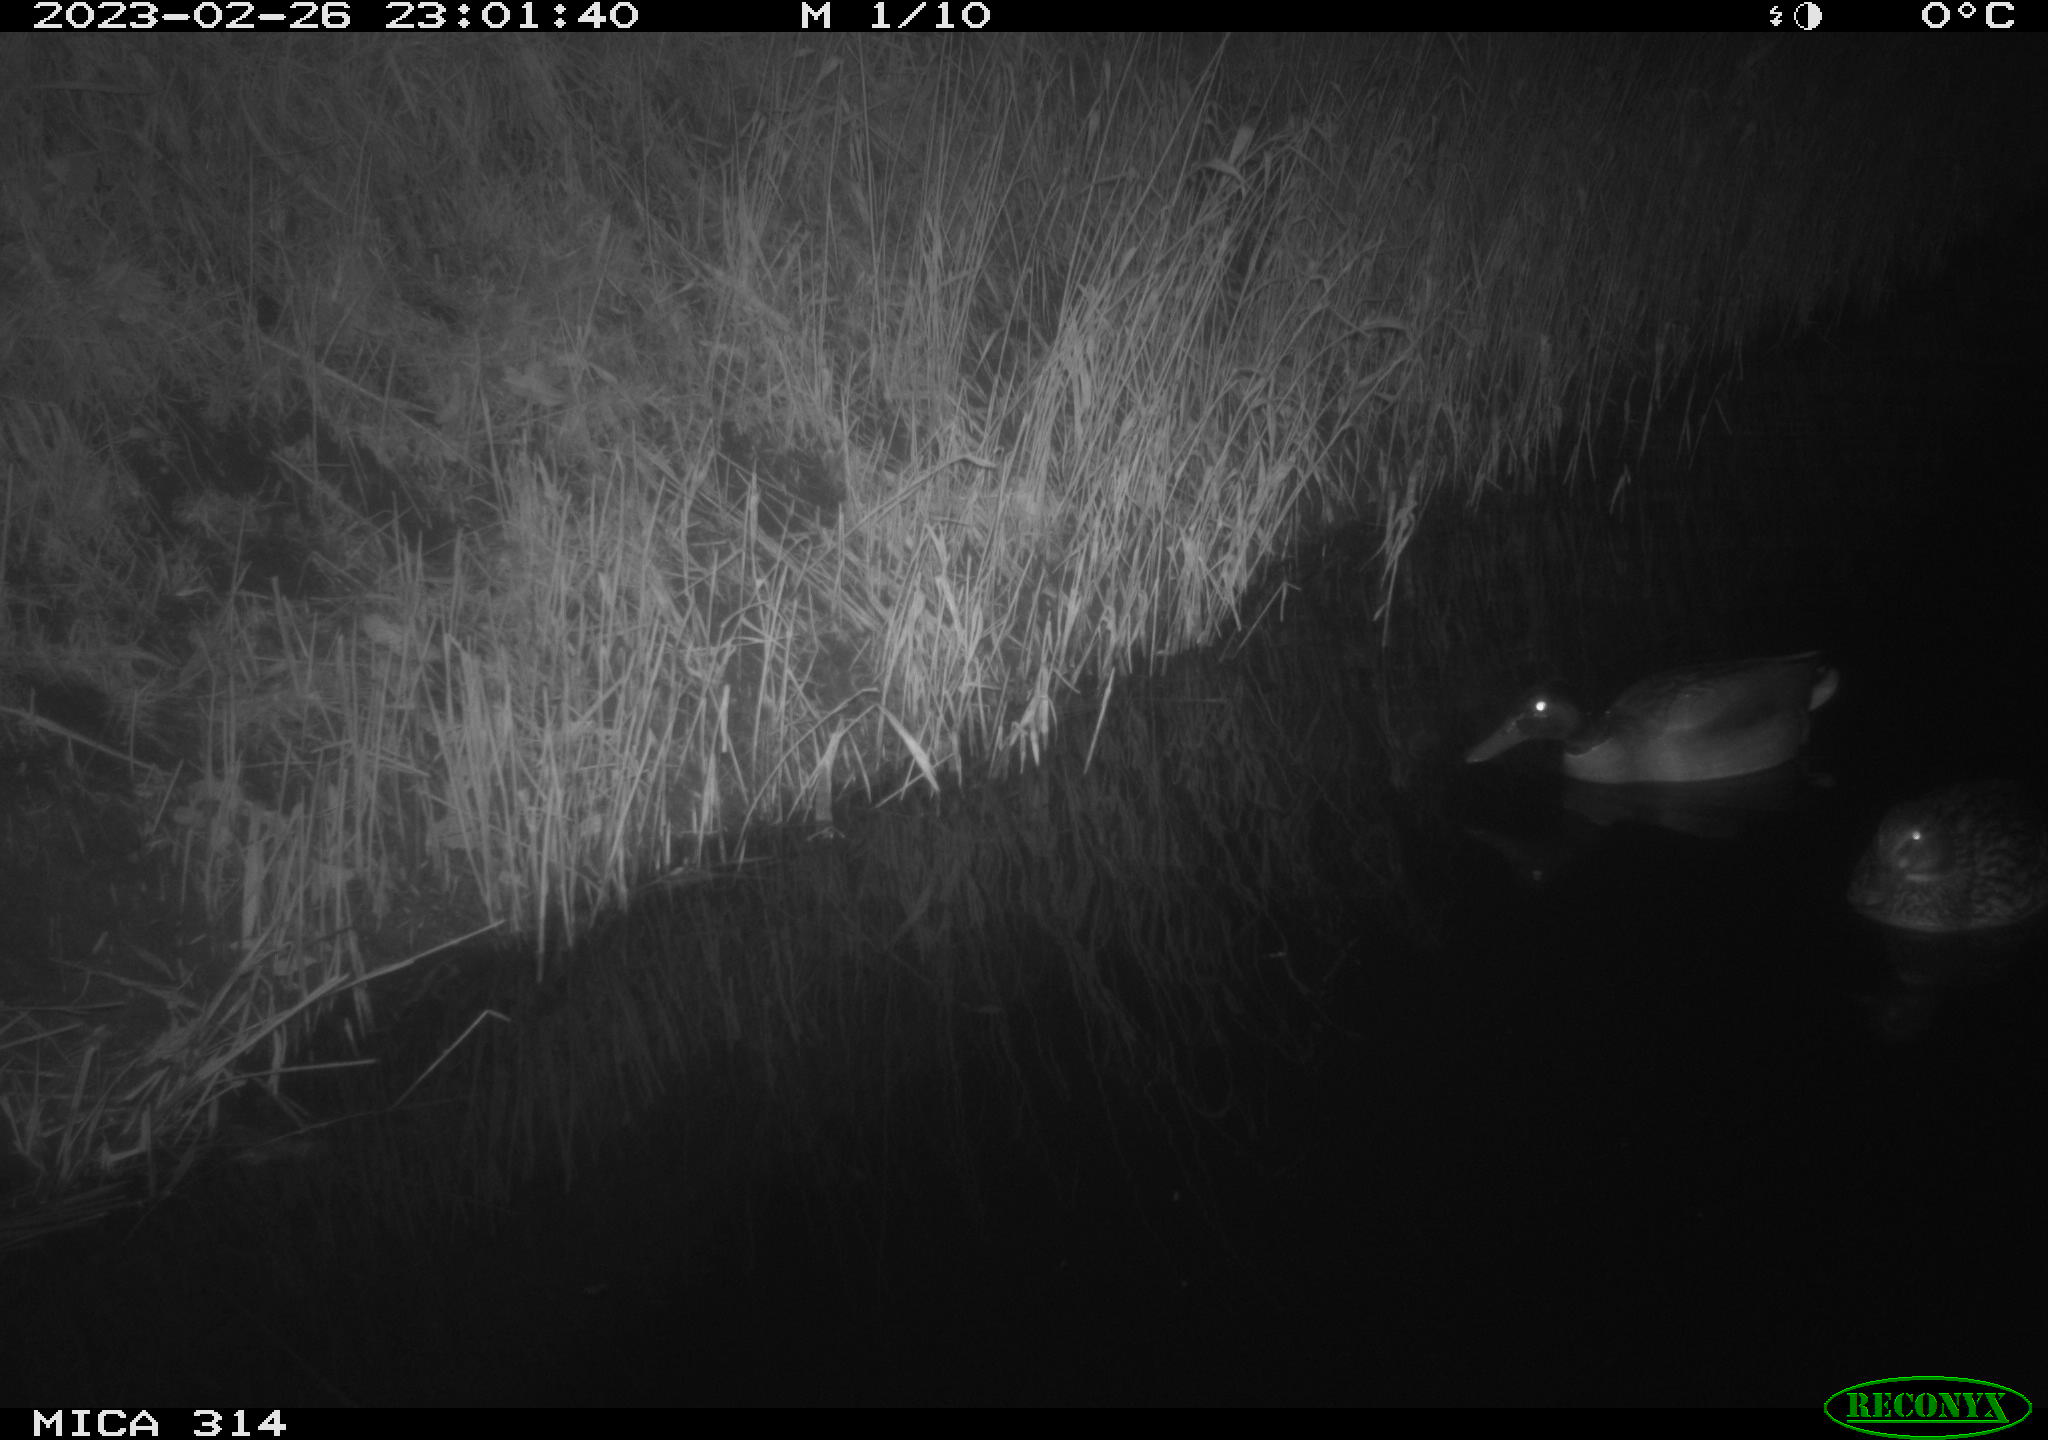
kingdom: Animalia
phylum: Chordata
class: Aves
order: Anseriformes
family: Anatidae
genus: Anas
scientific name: Anas
